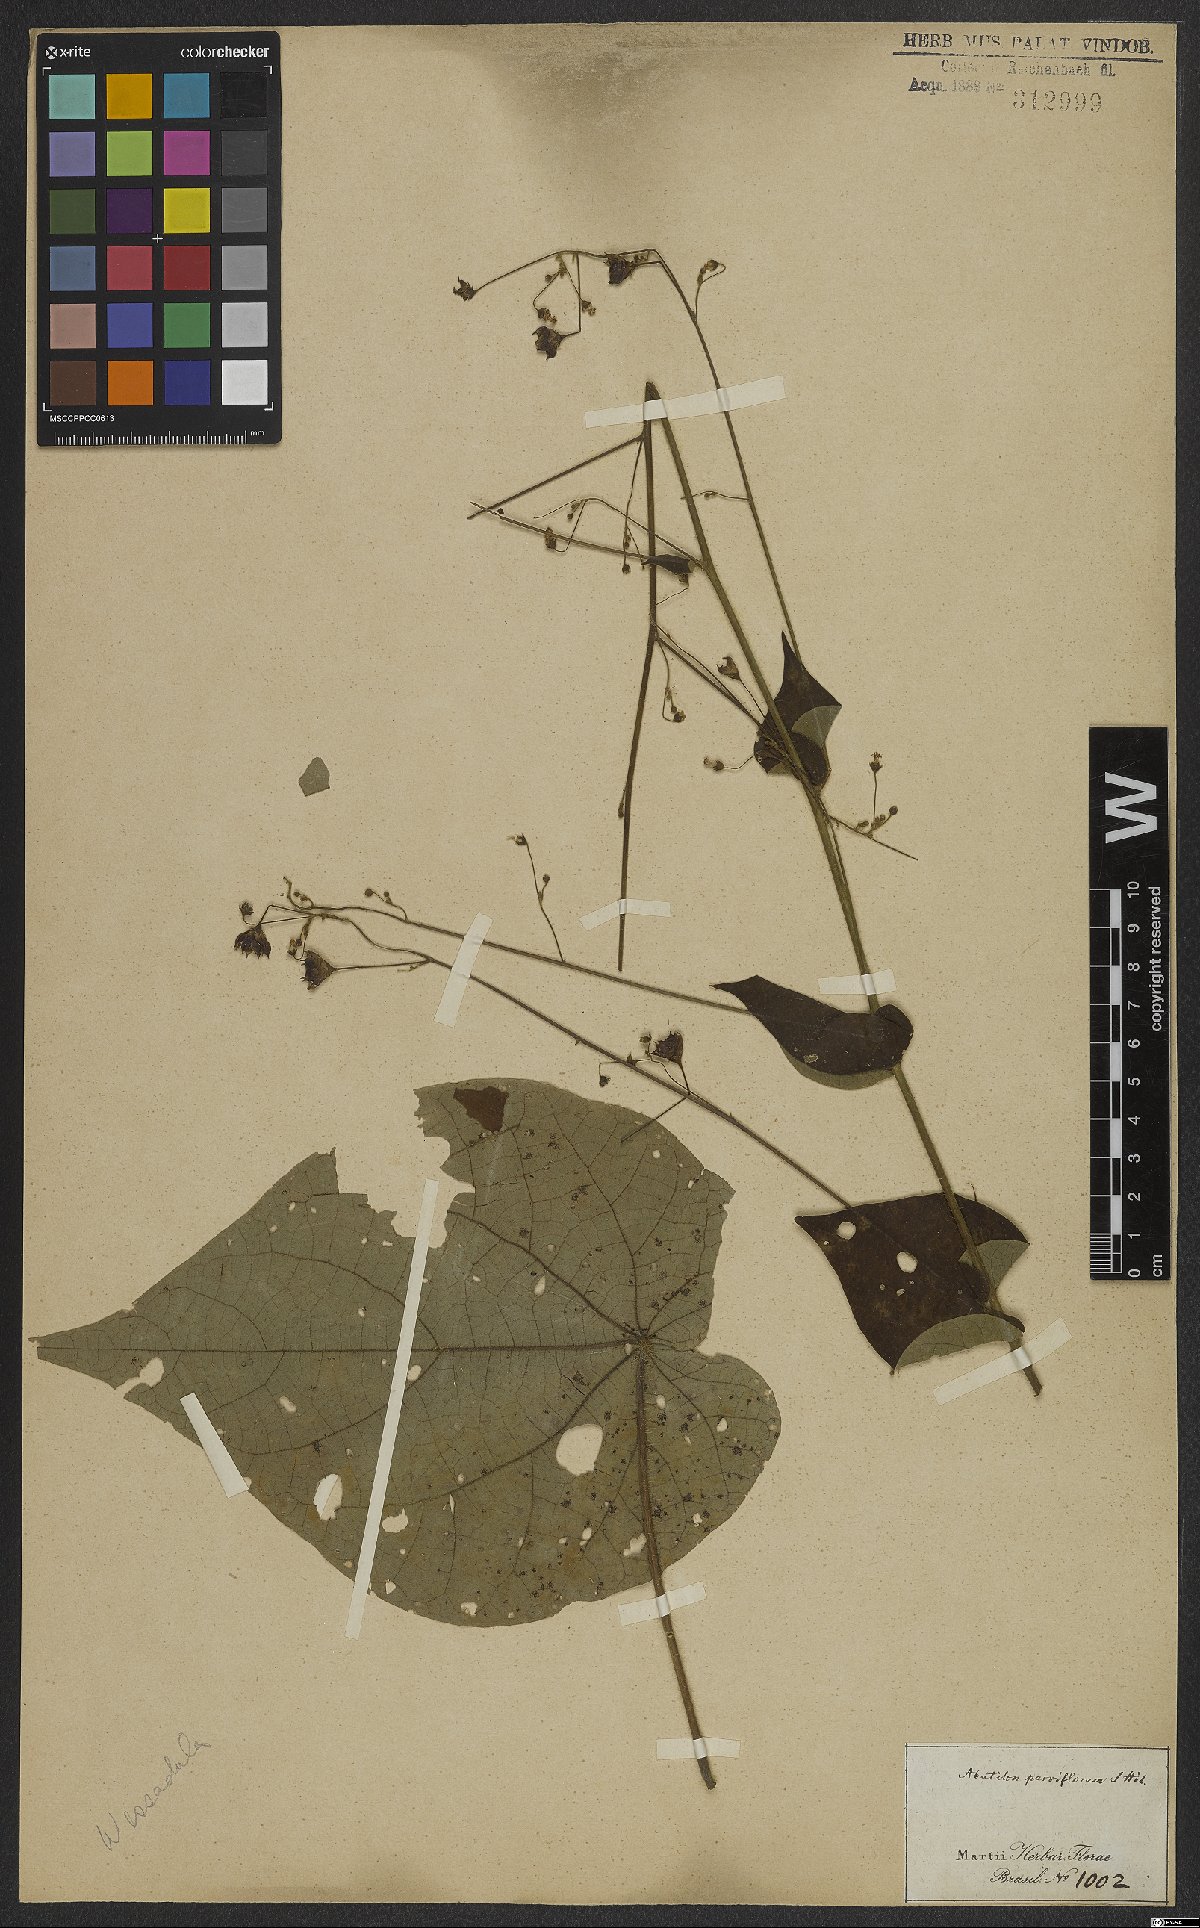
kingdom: Plantae
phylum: Tracheophyta
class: Magnoliopsida
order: Malvales
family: Malvaceae
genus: Wissadula
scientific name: Wissadula amplissima
